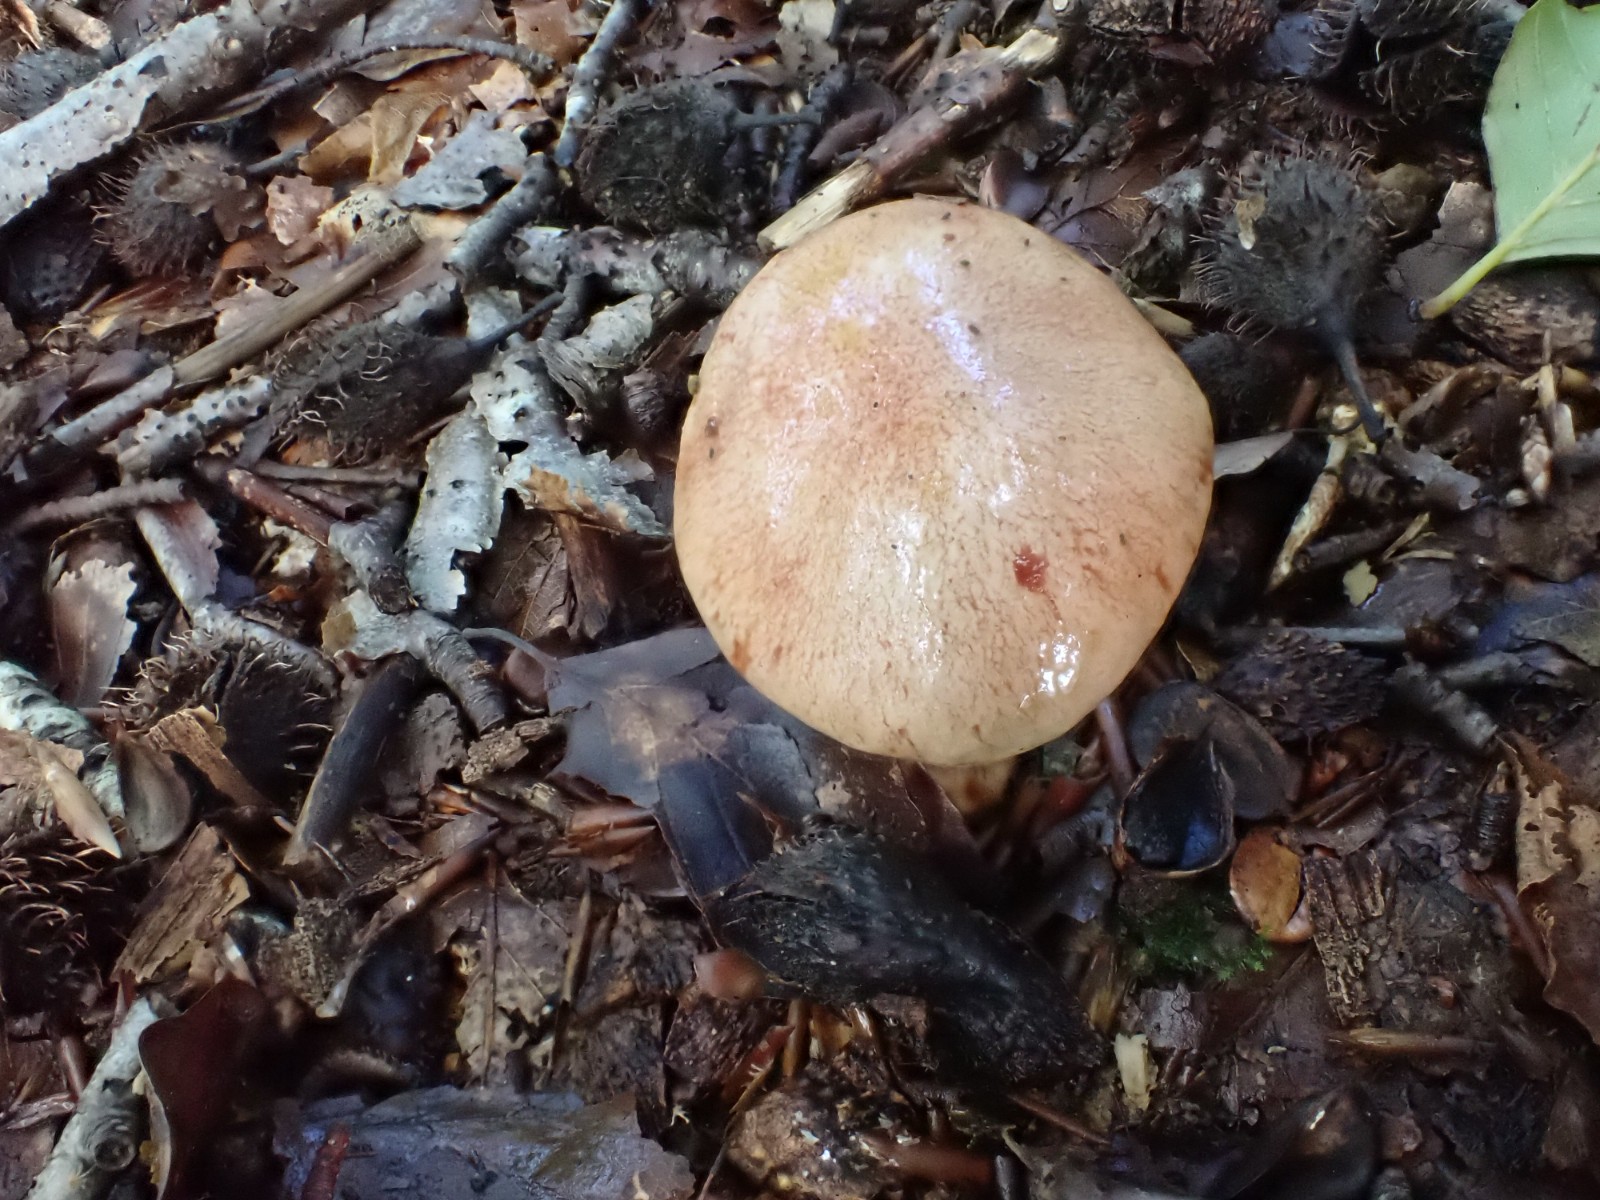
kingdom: Fungi
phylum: Basidiomycota
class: Agaricomycetes
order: Boletales
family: Boletaceae
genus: Aureoboletus
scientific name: Aureoboletus gentilis
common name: guldrørhat
